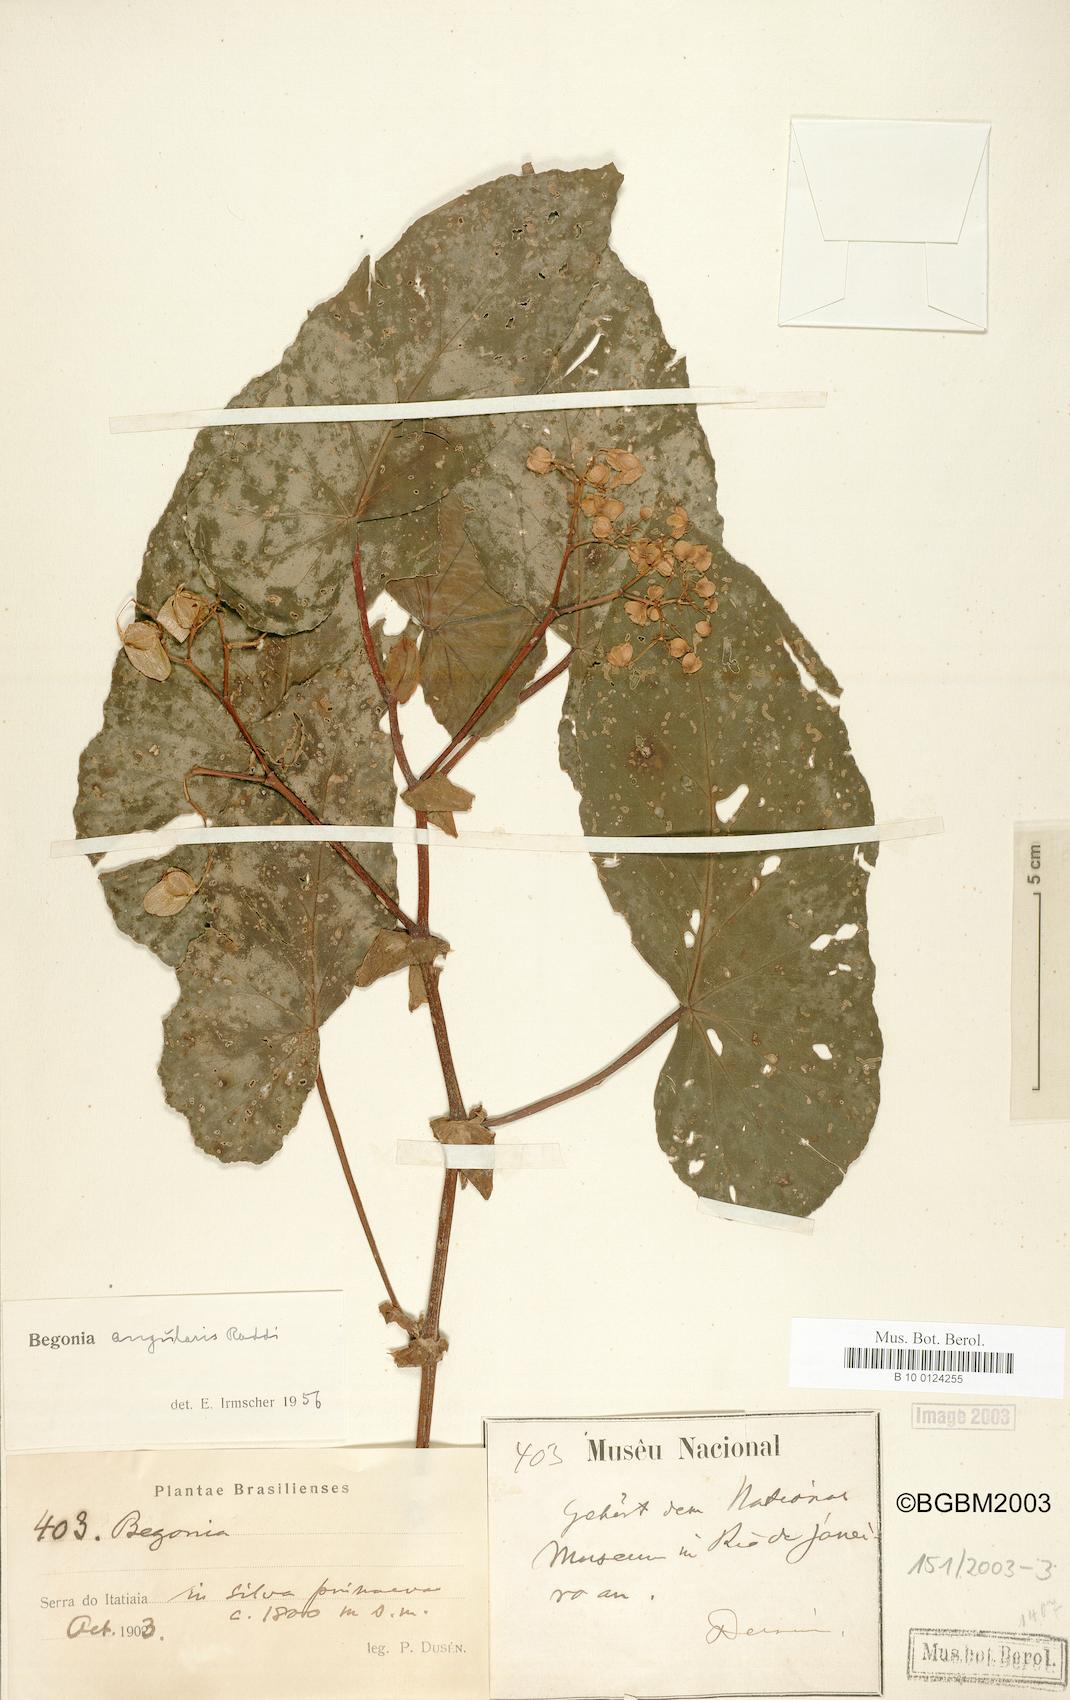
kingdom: Plantae
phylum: Tracheophyta
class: Magnoliopsida
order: Cucurbitales
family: Begoniaceae
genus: Begonia
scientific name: Begonia angularis
